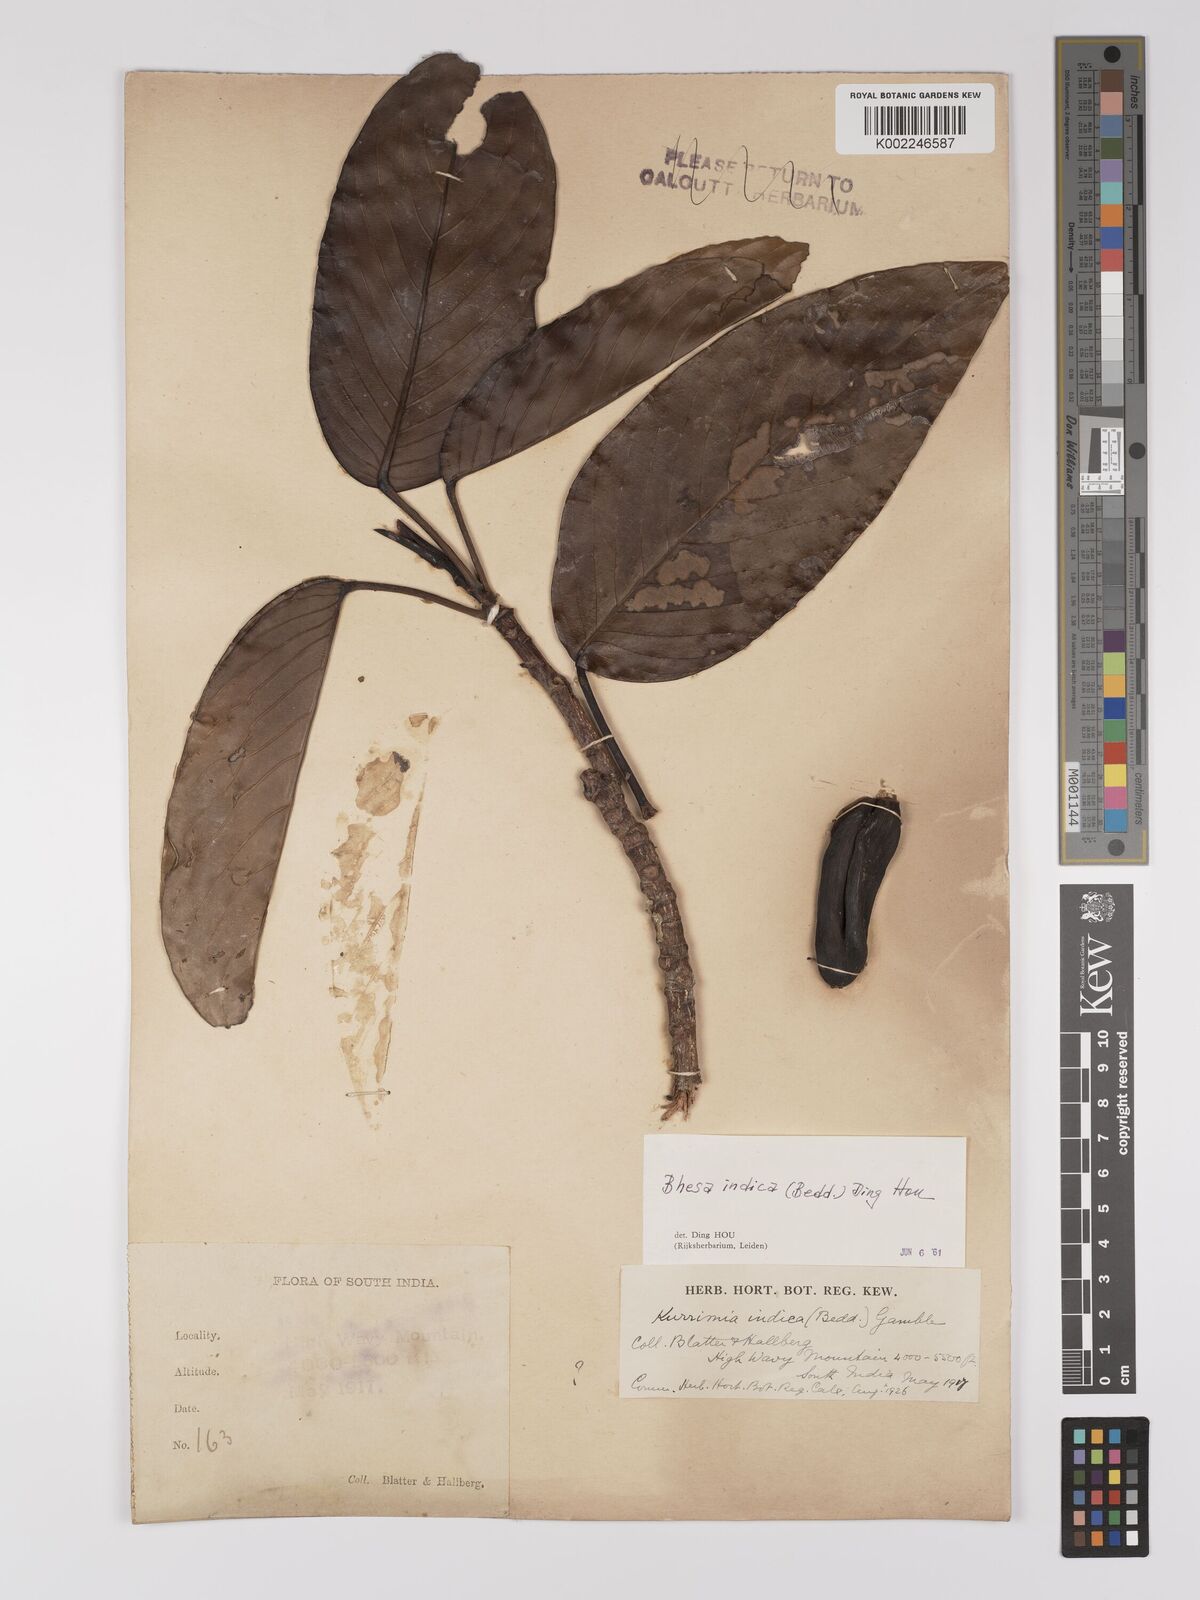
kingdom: Plantae
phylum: Tracheophyta
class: Magnoliopsida
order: Malpighiales
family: Centroplacaceae
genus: Bhesa
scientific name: Bhesa indica
